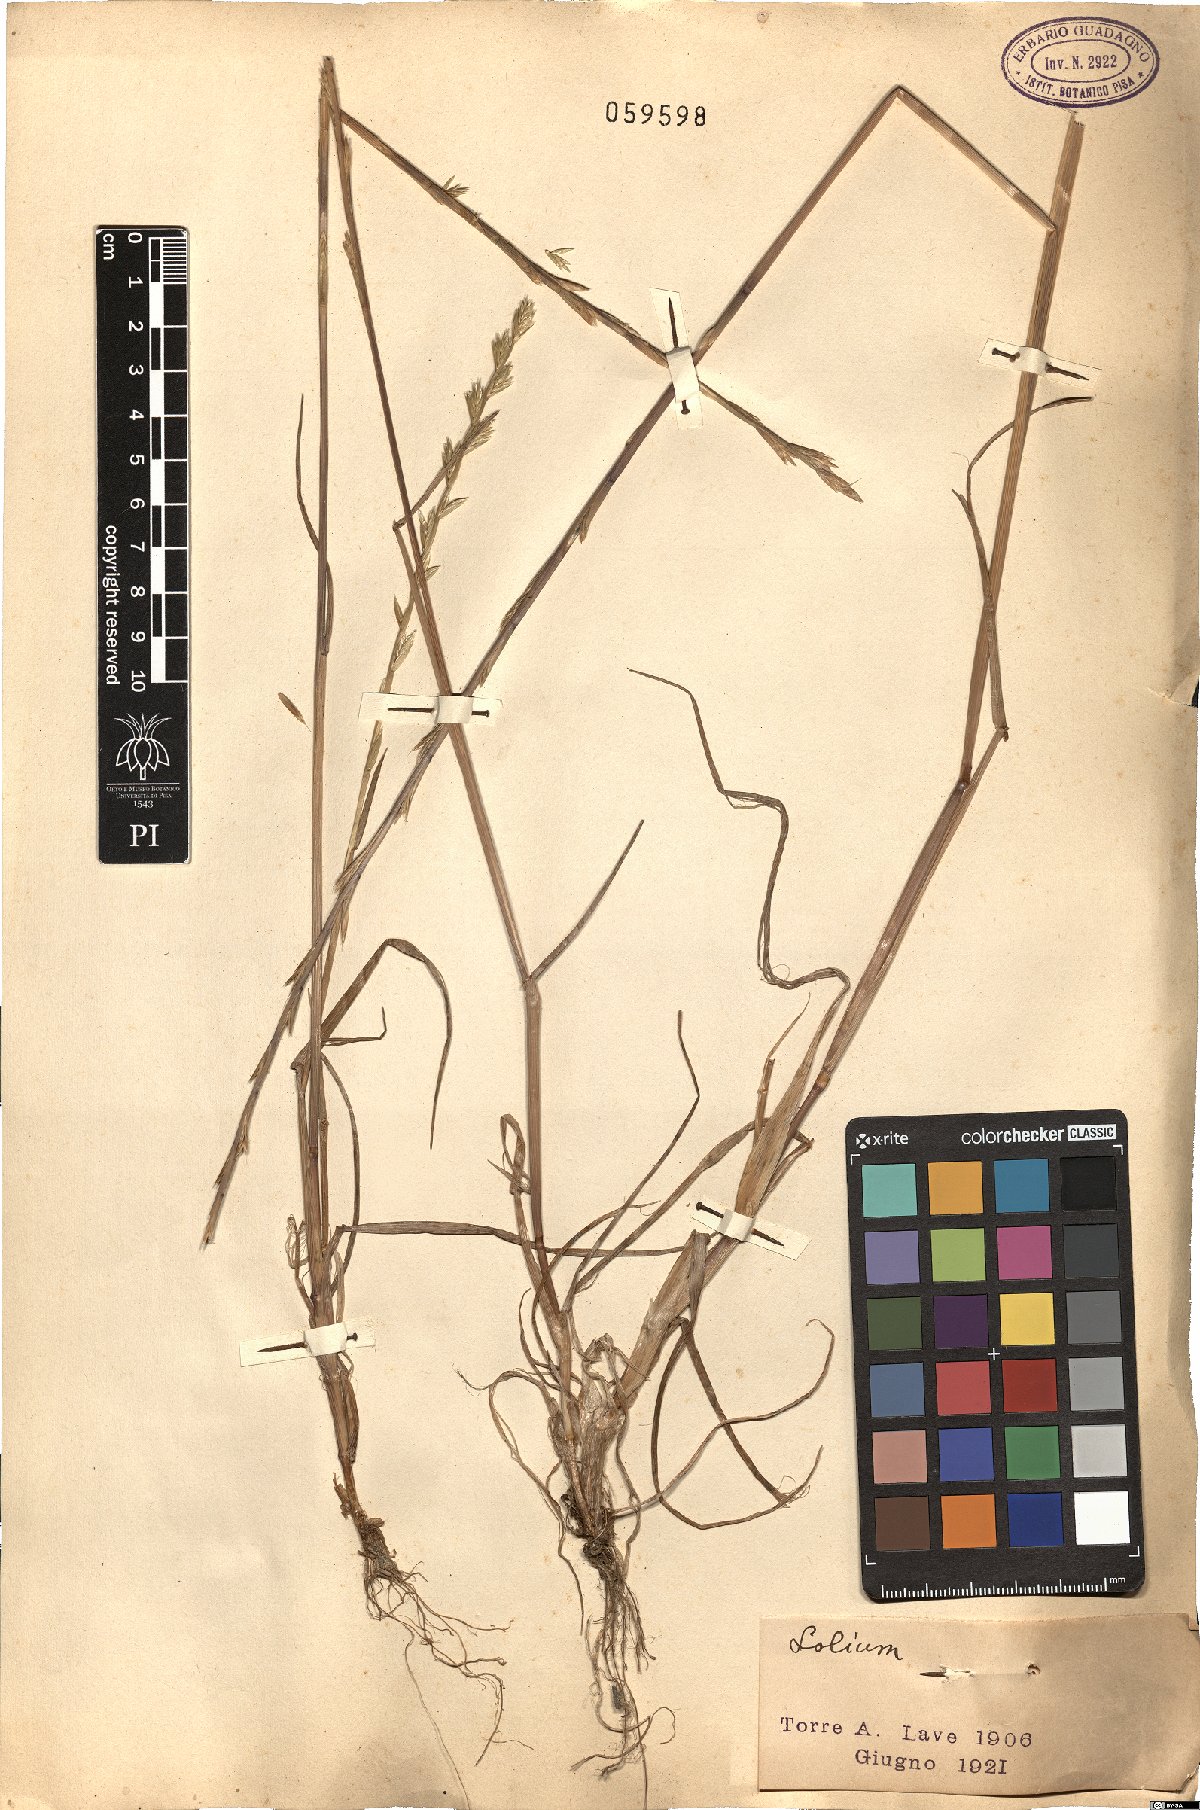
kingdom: Plantae
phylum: Tracheophyta
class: Liliopsida
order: Poales
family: Poaceae
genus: Lolium
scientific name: Lolium
